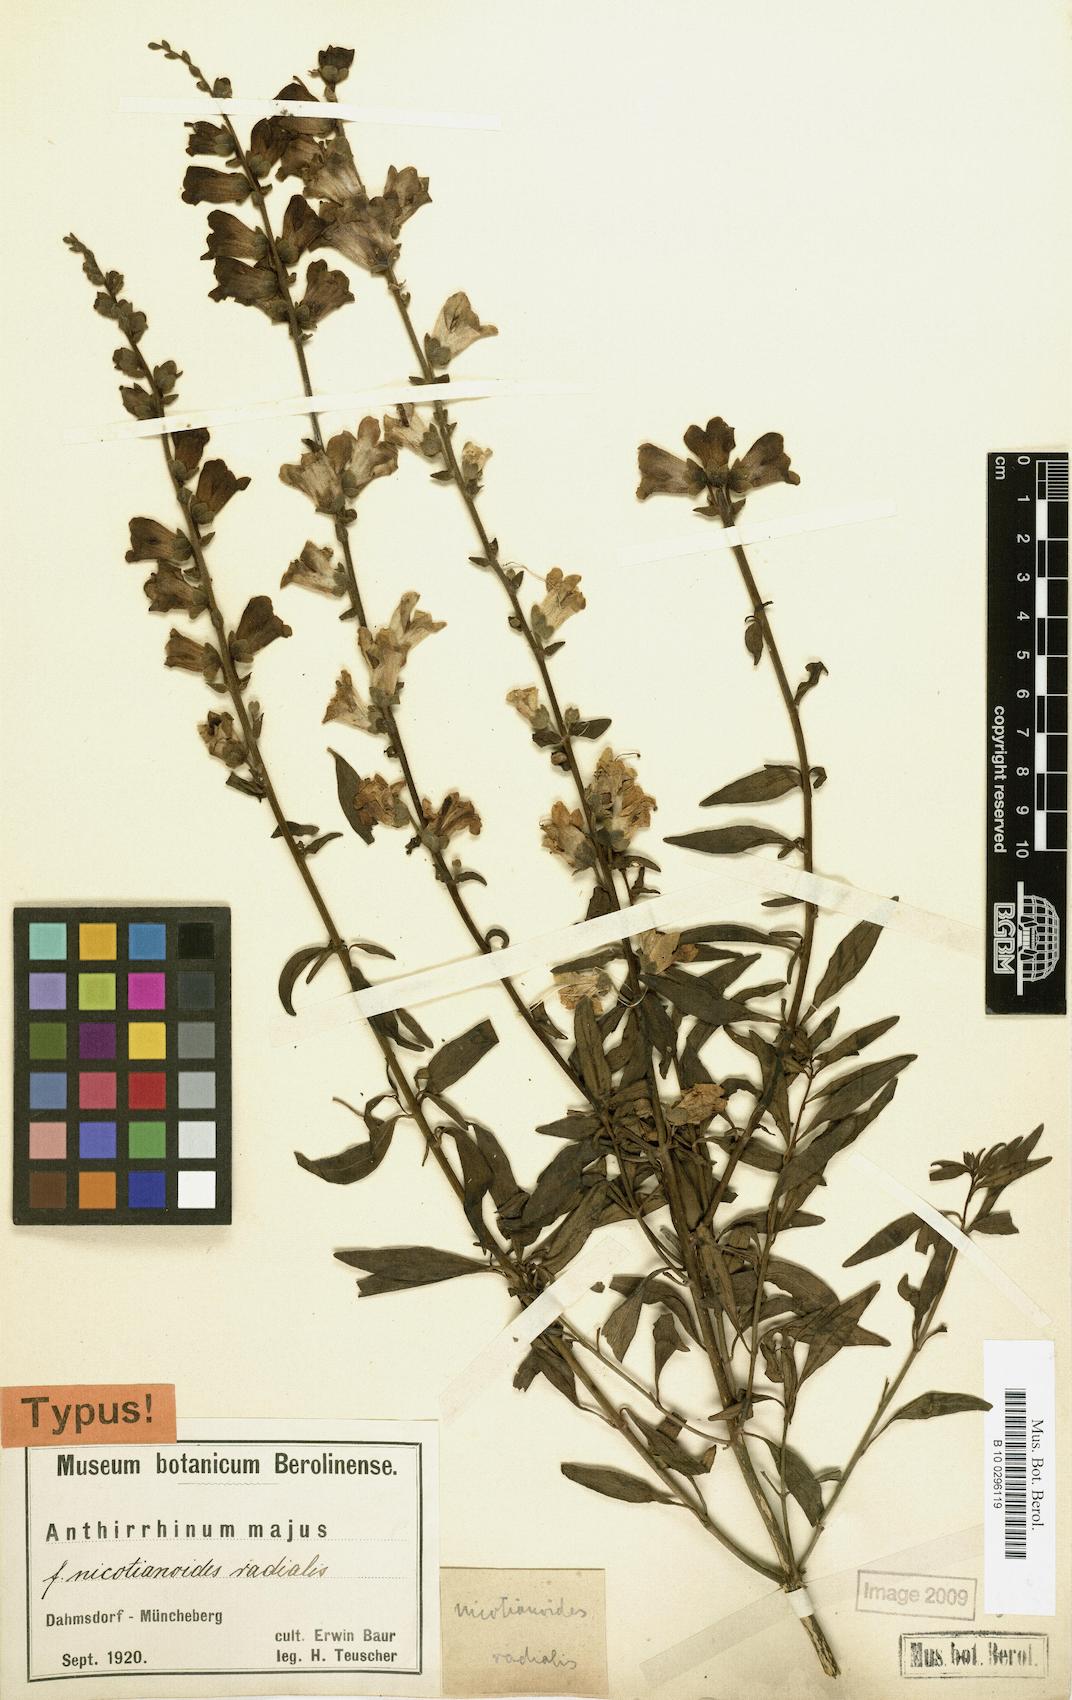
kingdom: Plantae
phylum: Tracheophyta
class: Magnoliopsida
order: Lamiales
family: Plantaginaceae
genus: Antirrhinum
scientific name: Antirrhinum majus
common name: Snapdragon
